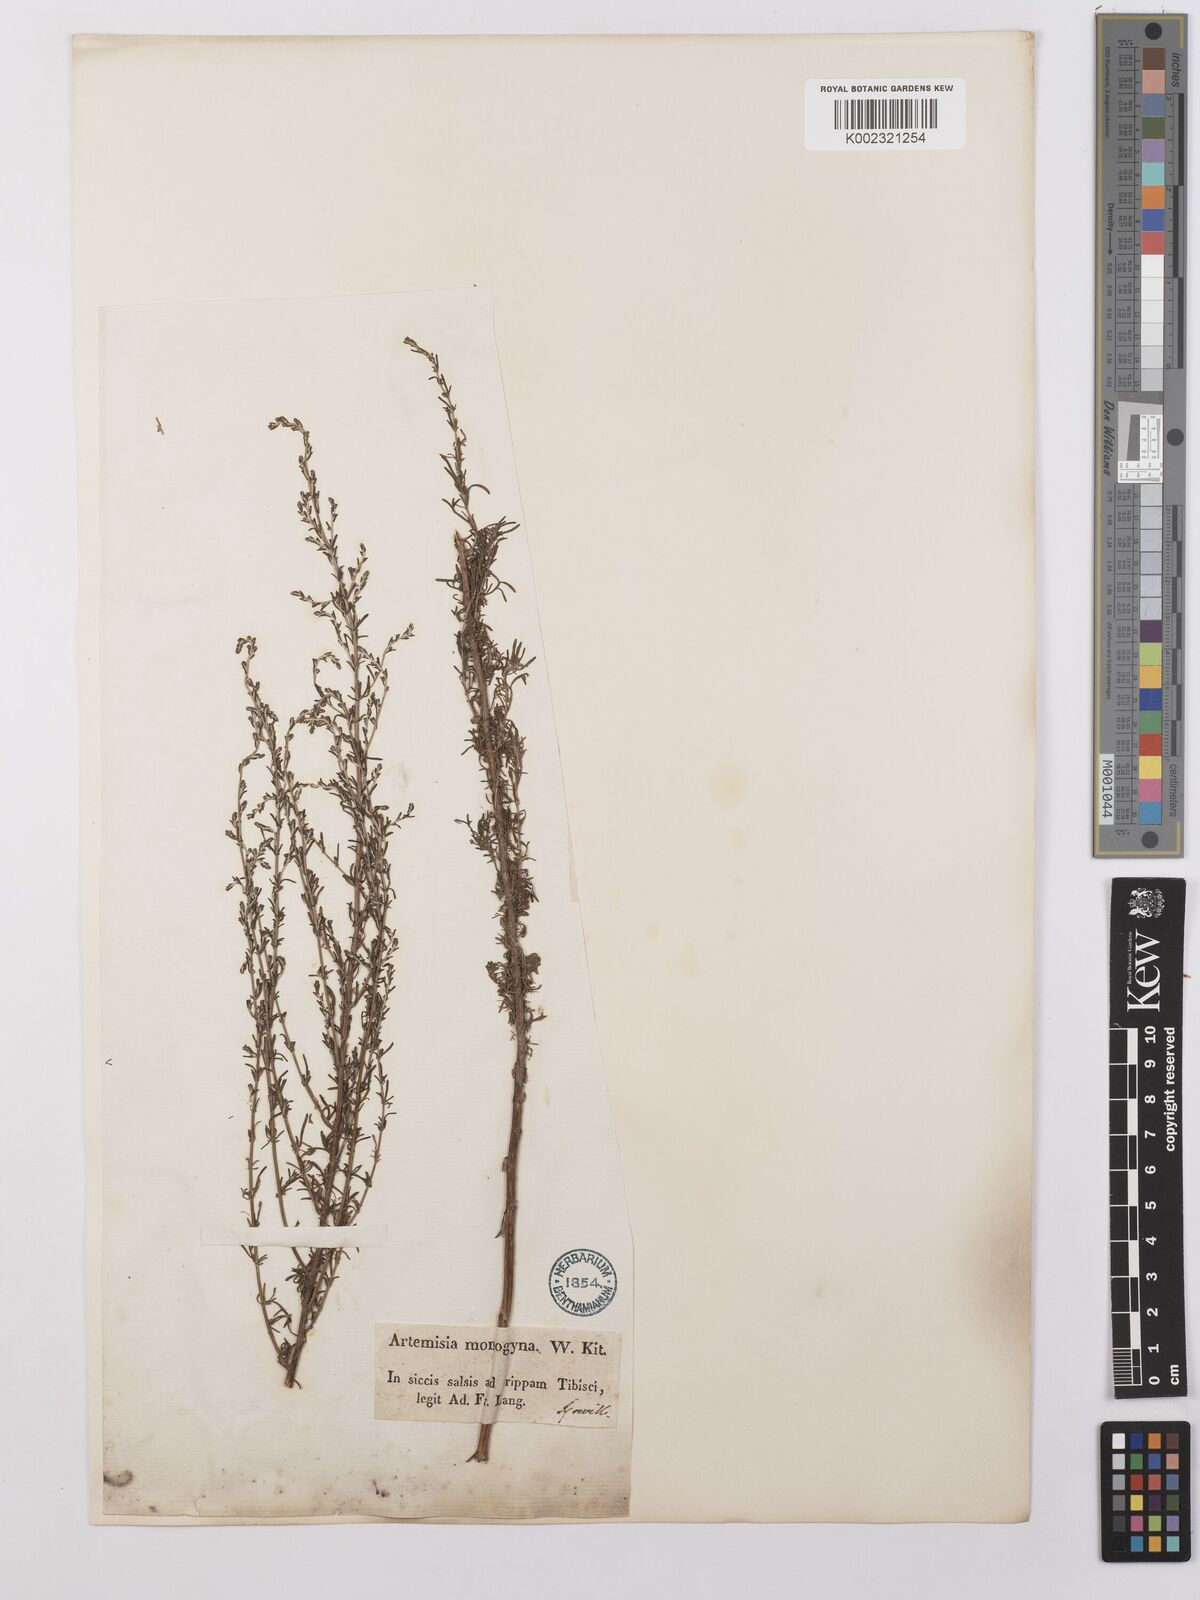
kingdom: Plantae
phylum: Tracheophyta
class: Magnoliopsida
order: Asterales
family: Asteraceae
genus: Artemisia
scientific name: Artemisia maritima
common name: Wormseed
